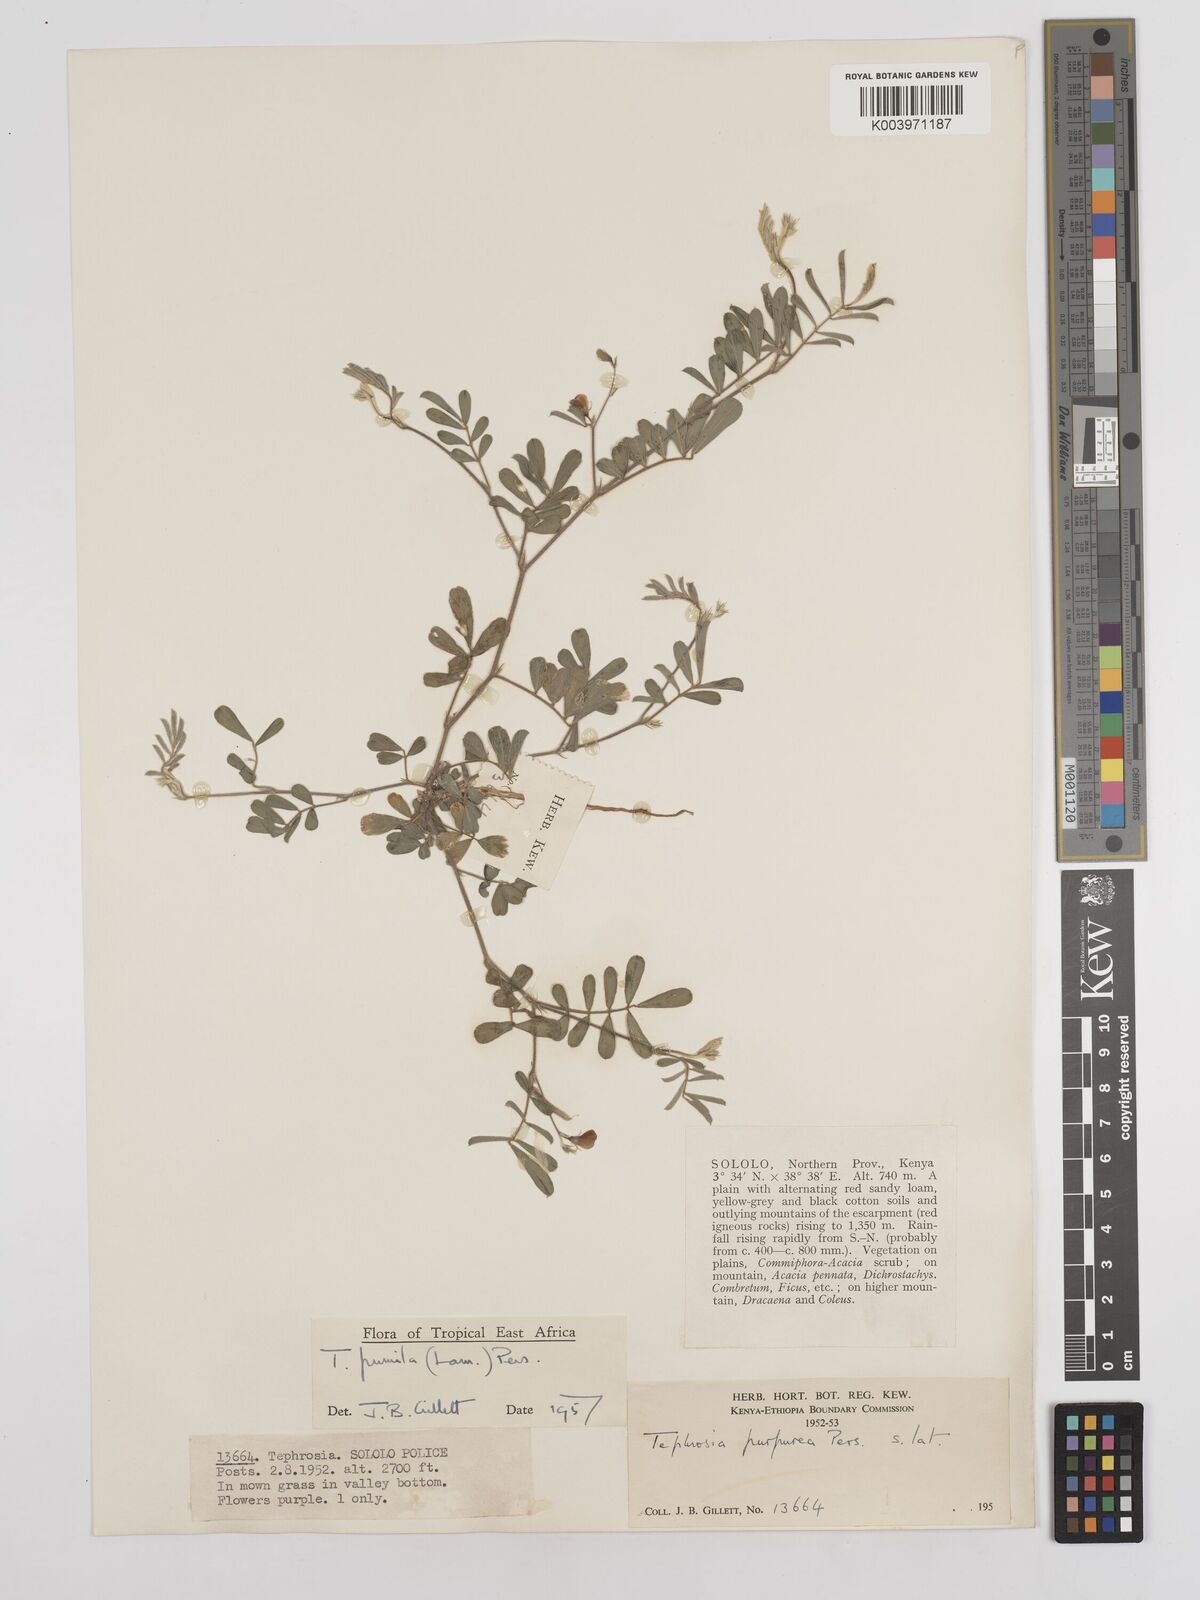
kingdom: Plantae
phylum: Tracheophyta
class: Magnoliopsida
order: Fabales
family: Fabaceae
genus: Tephrosia
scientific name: Tephrosia pumila
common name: Indigo sauvage
